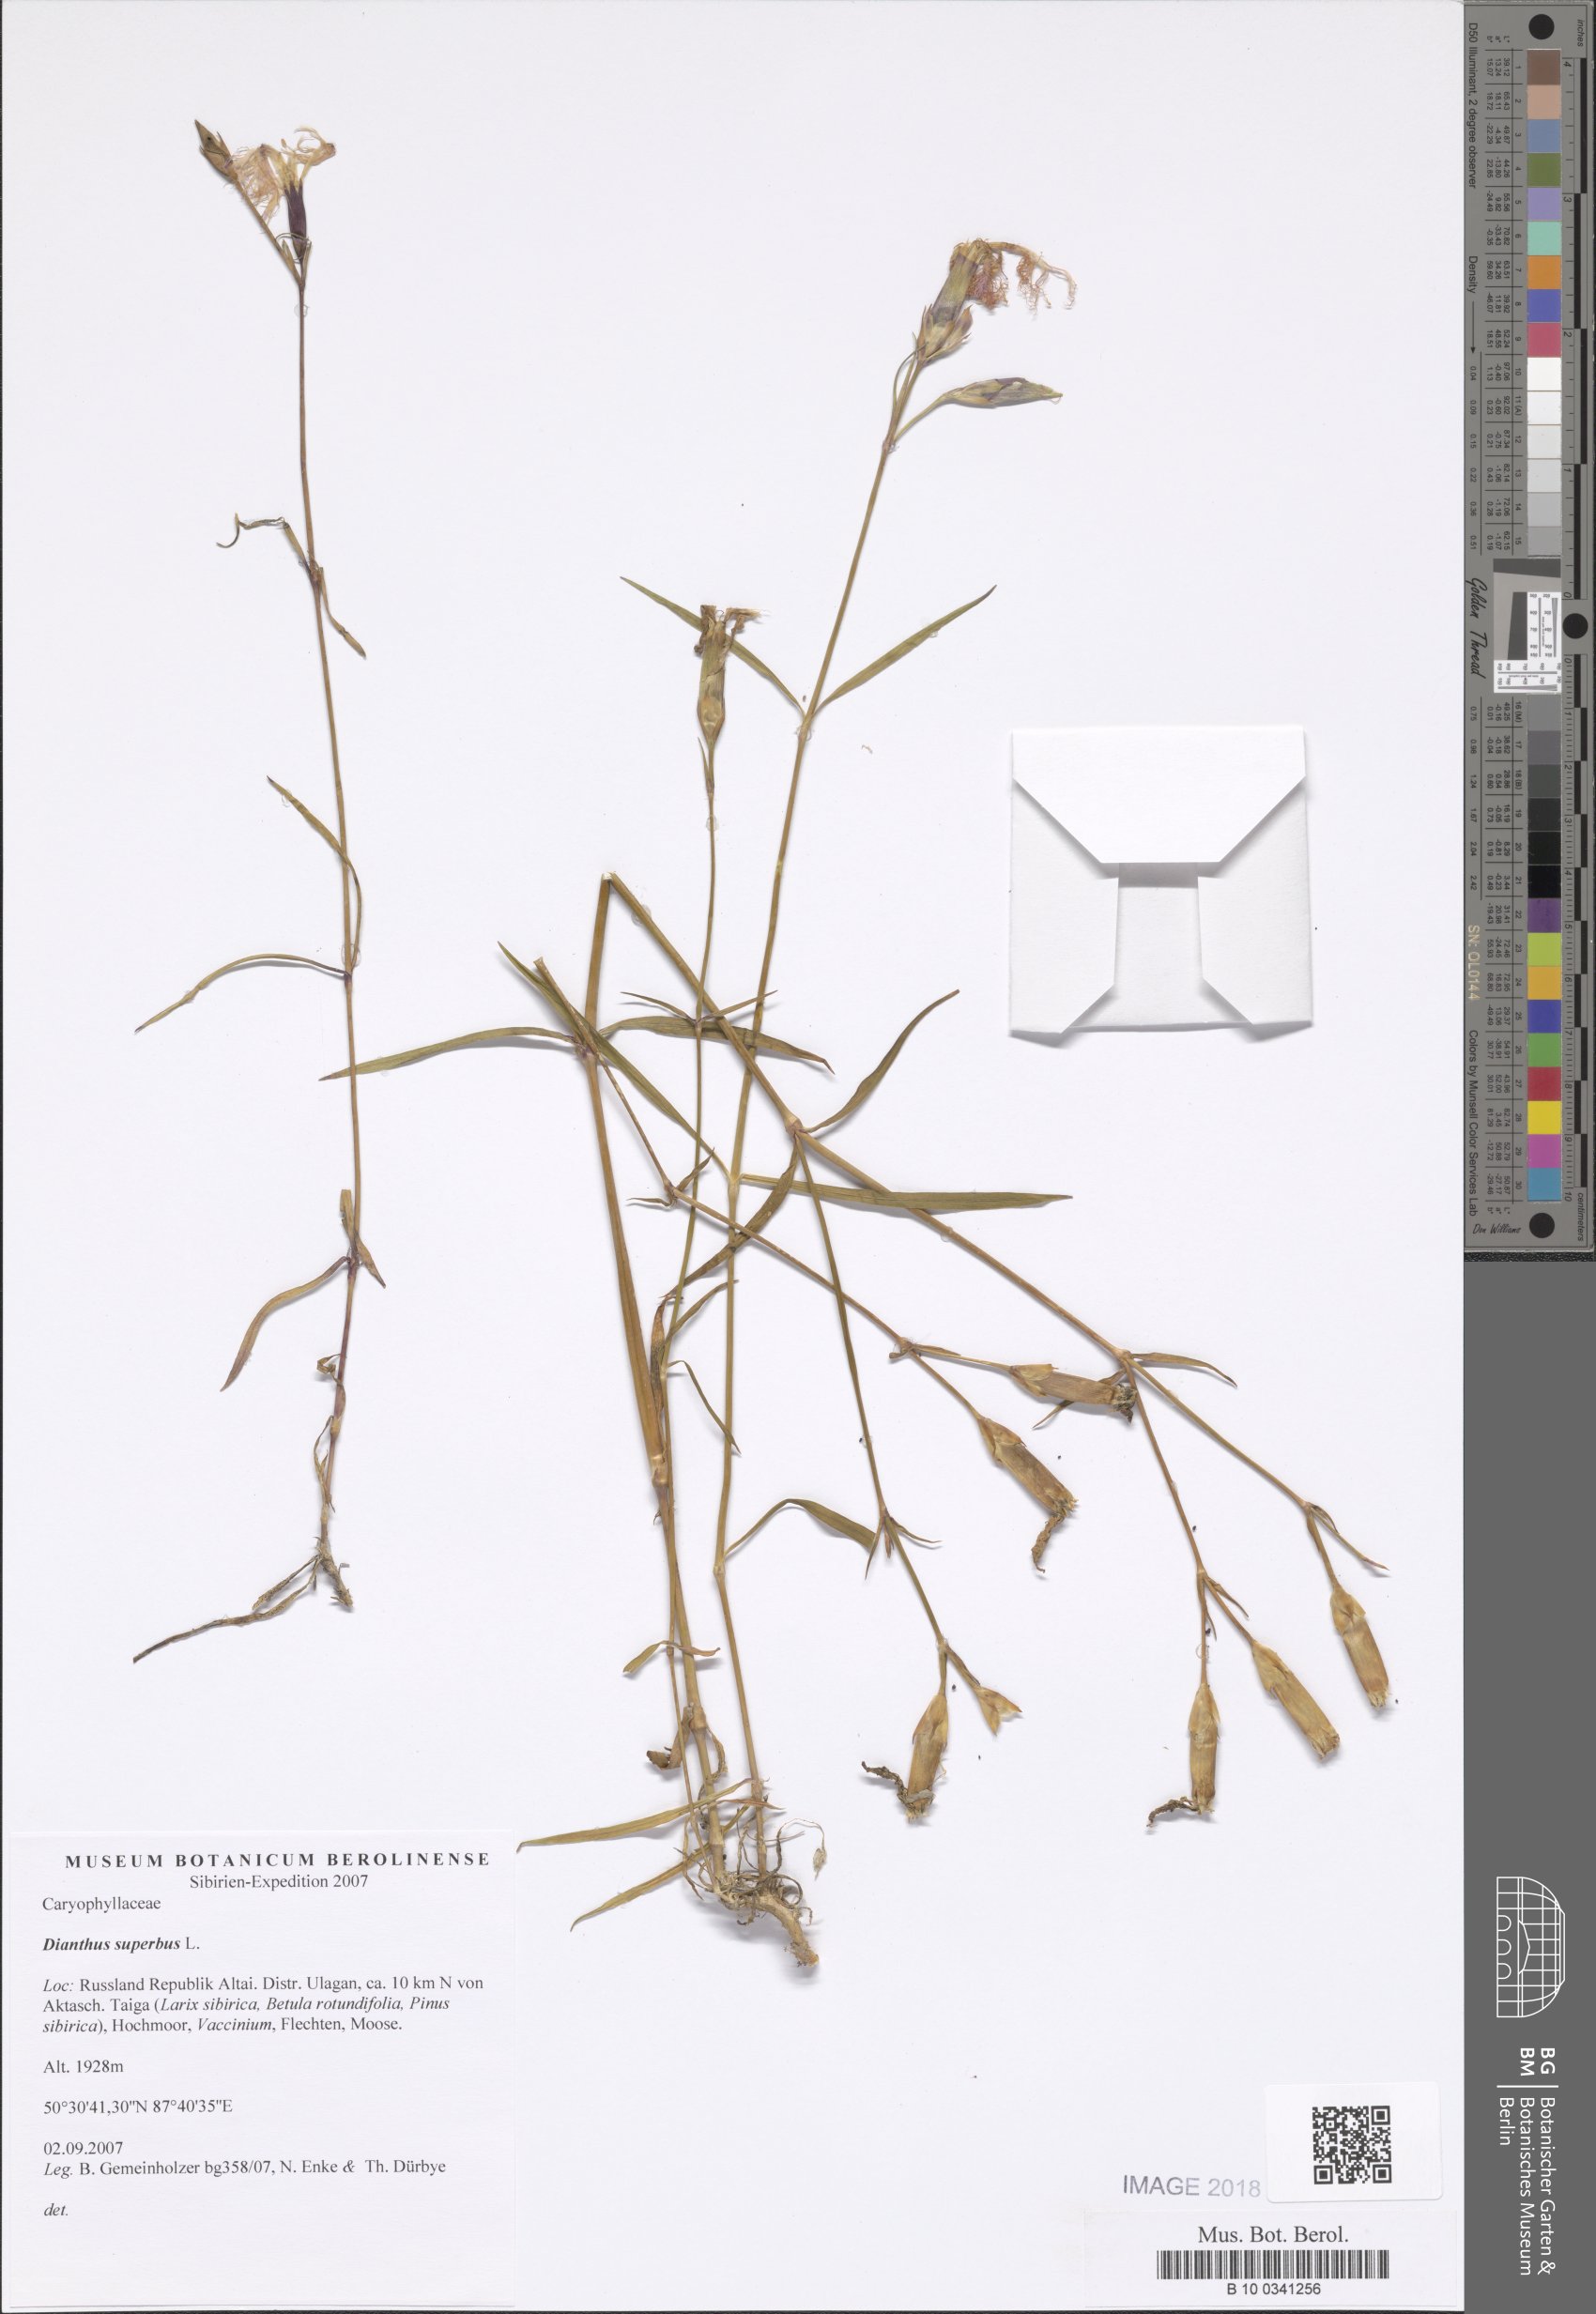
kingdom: Plantae
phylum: Tracheophyta
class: Magnoliopsida
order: Caryophyllales
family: Caryophyllaceae
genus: Dianthus
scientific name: Dianthus superbus
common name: Fringed pink
